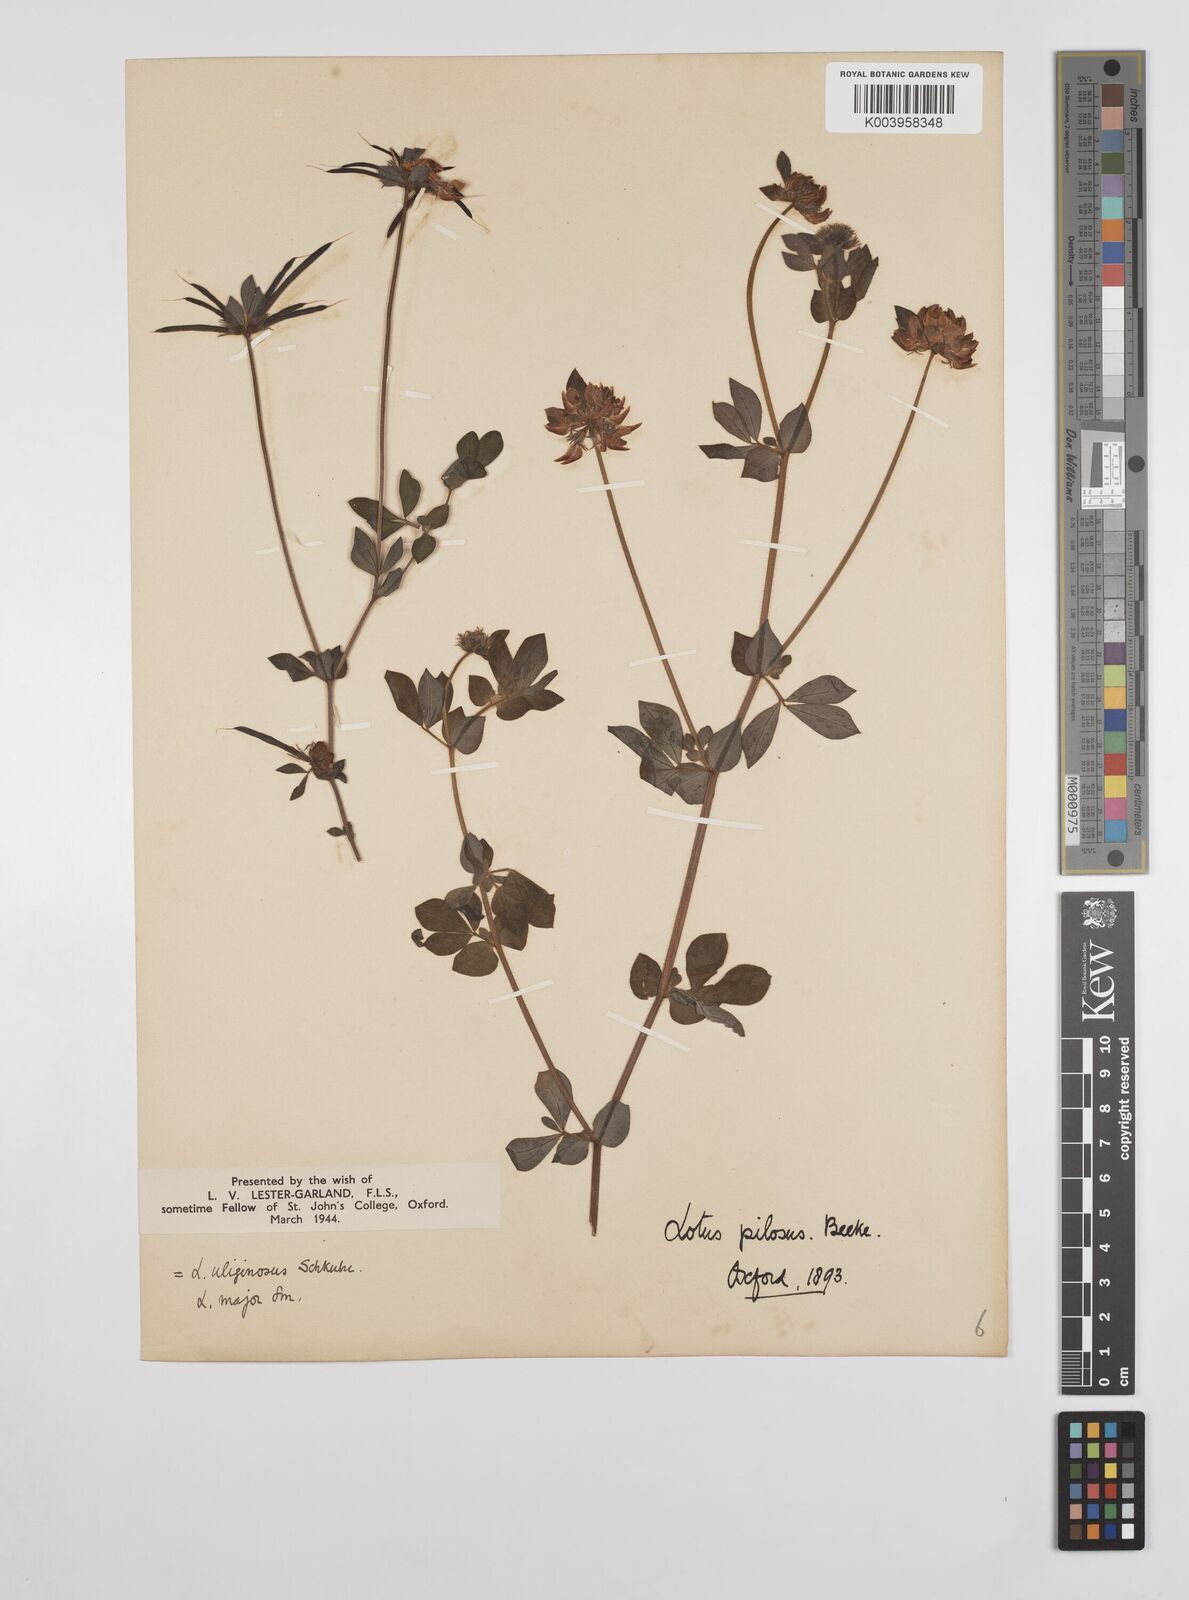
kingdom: Plantae
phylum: Tracheophyta
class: Magnoliopsida
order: Fabales
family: Fabaceae
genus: Lotus
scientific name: Lotus pedunculatus
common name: Greater birdsfoot-trefoil
